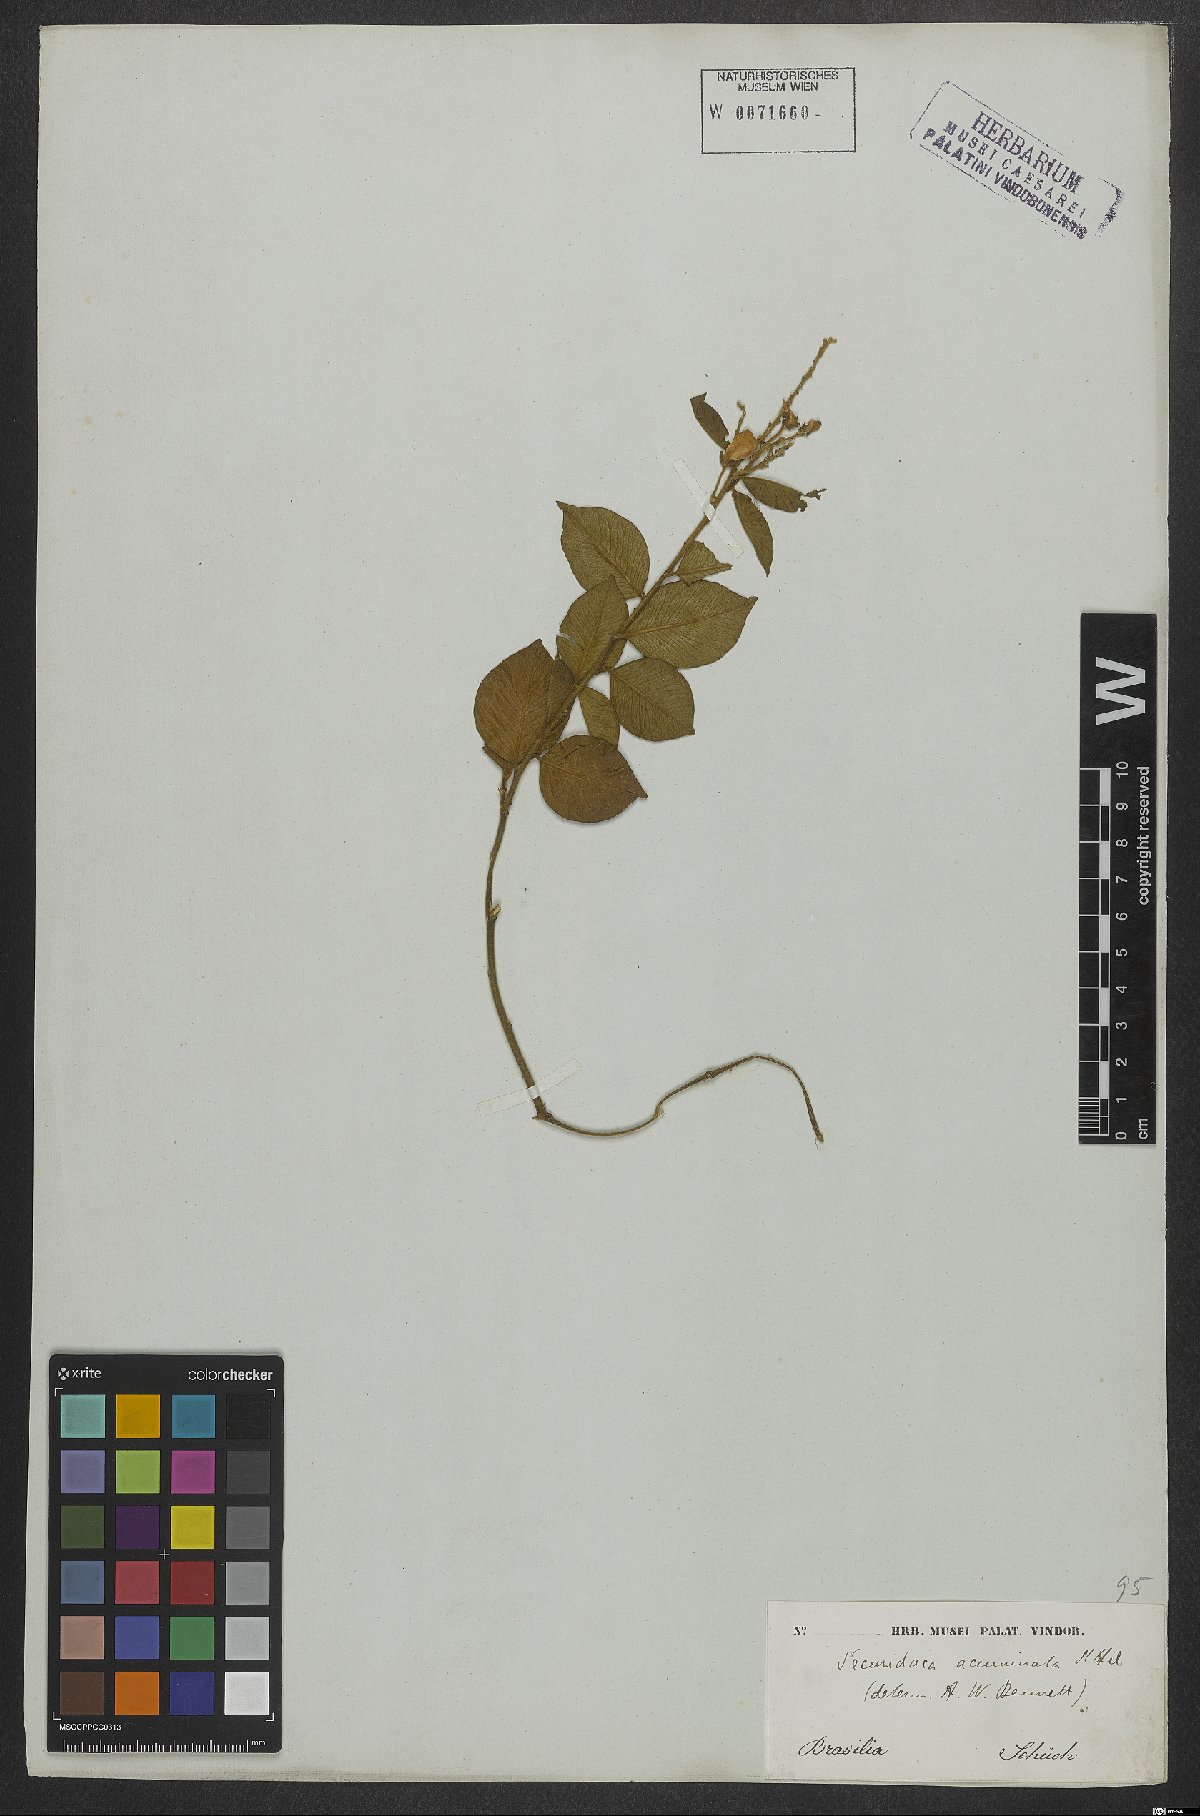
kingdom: Plantae
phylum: Tracheophyta
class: Magnoliopsida
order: Fabales
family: Polygalaceae
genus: Securidaca
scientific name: Securidaca acuminata
